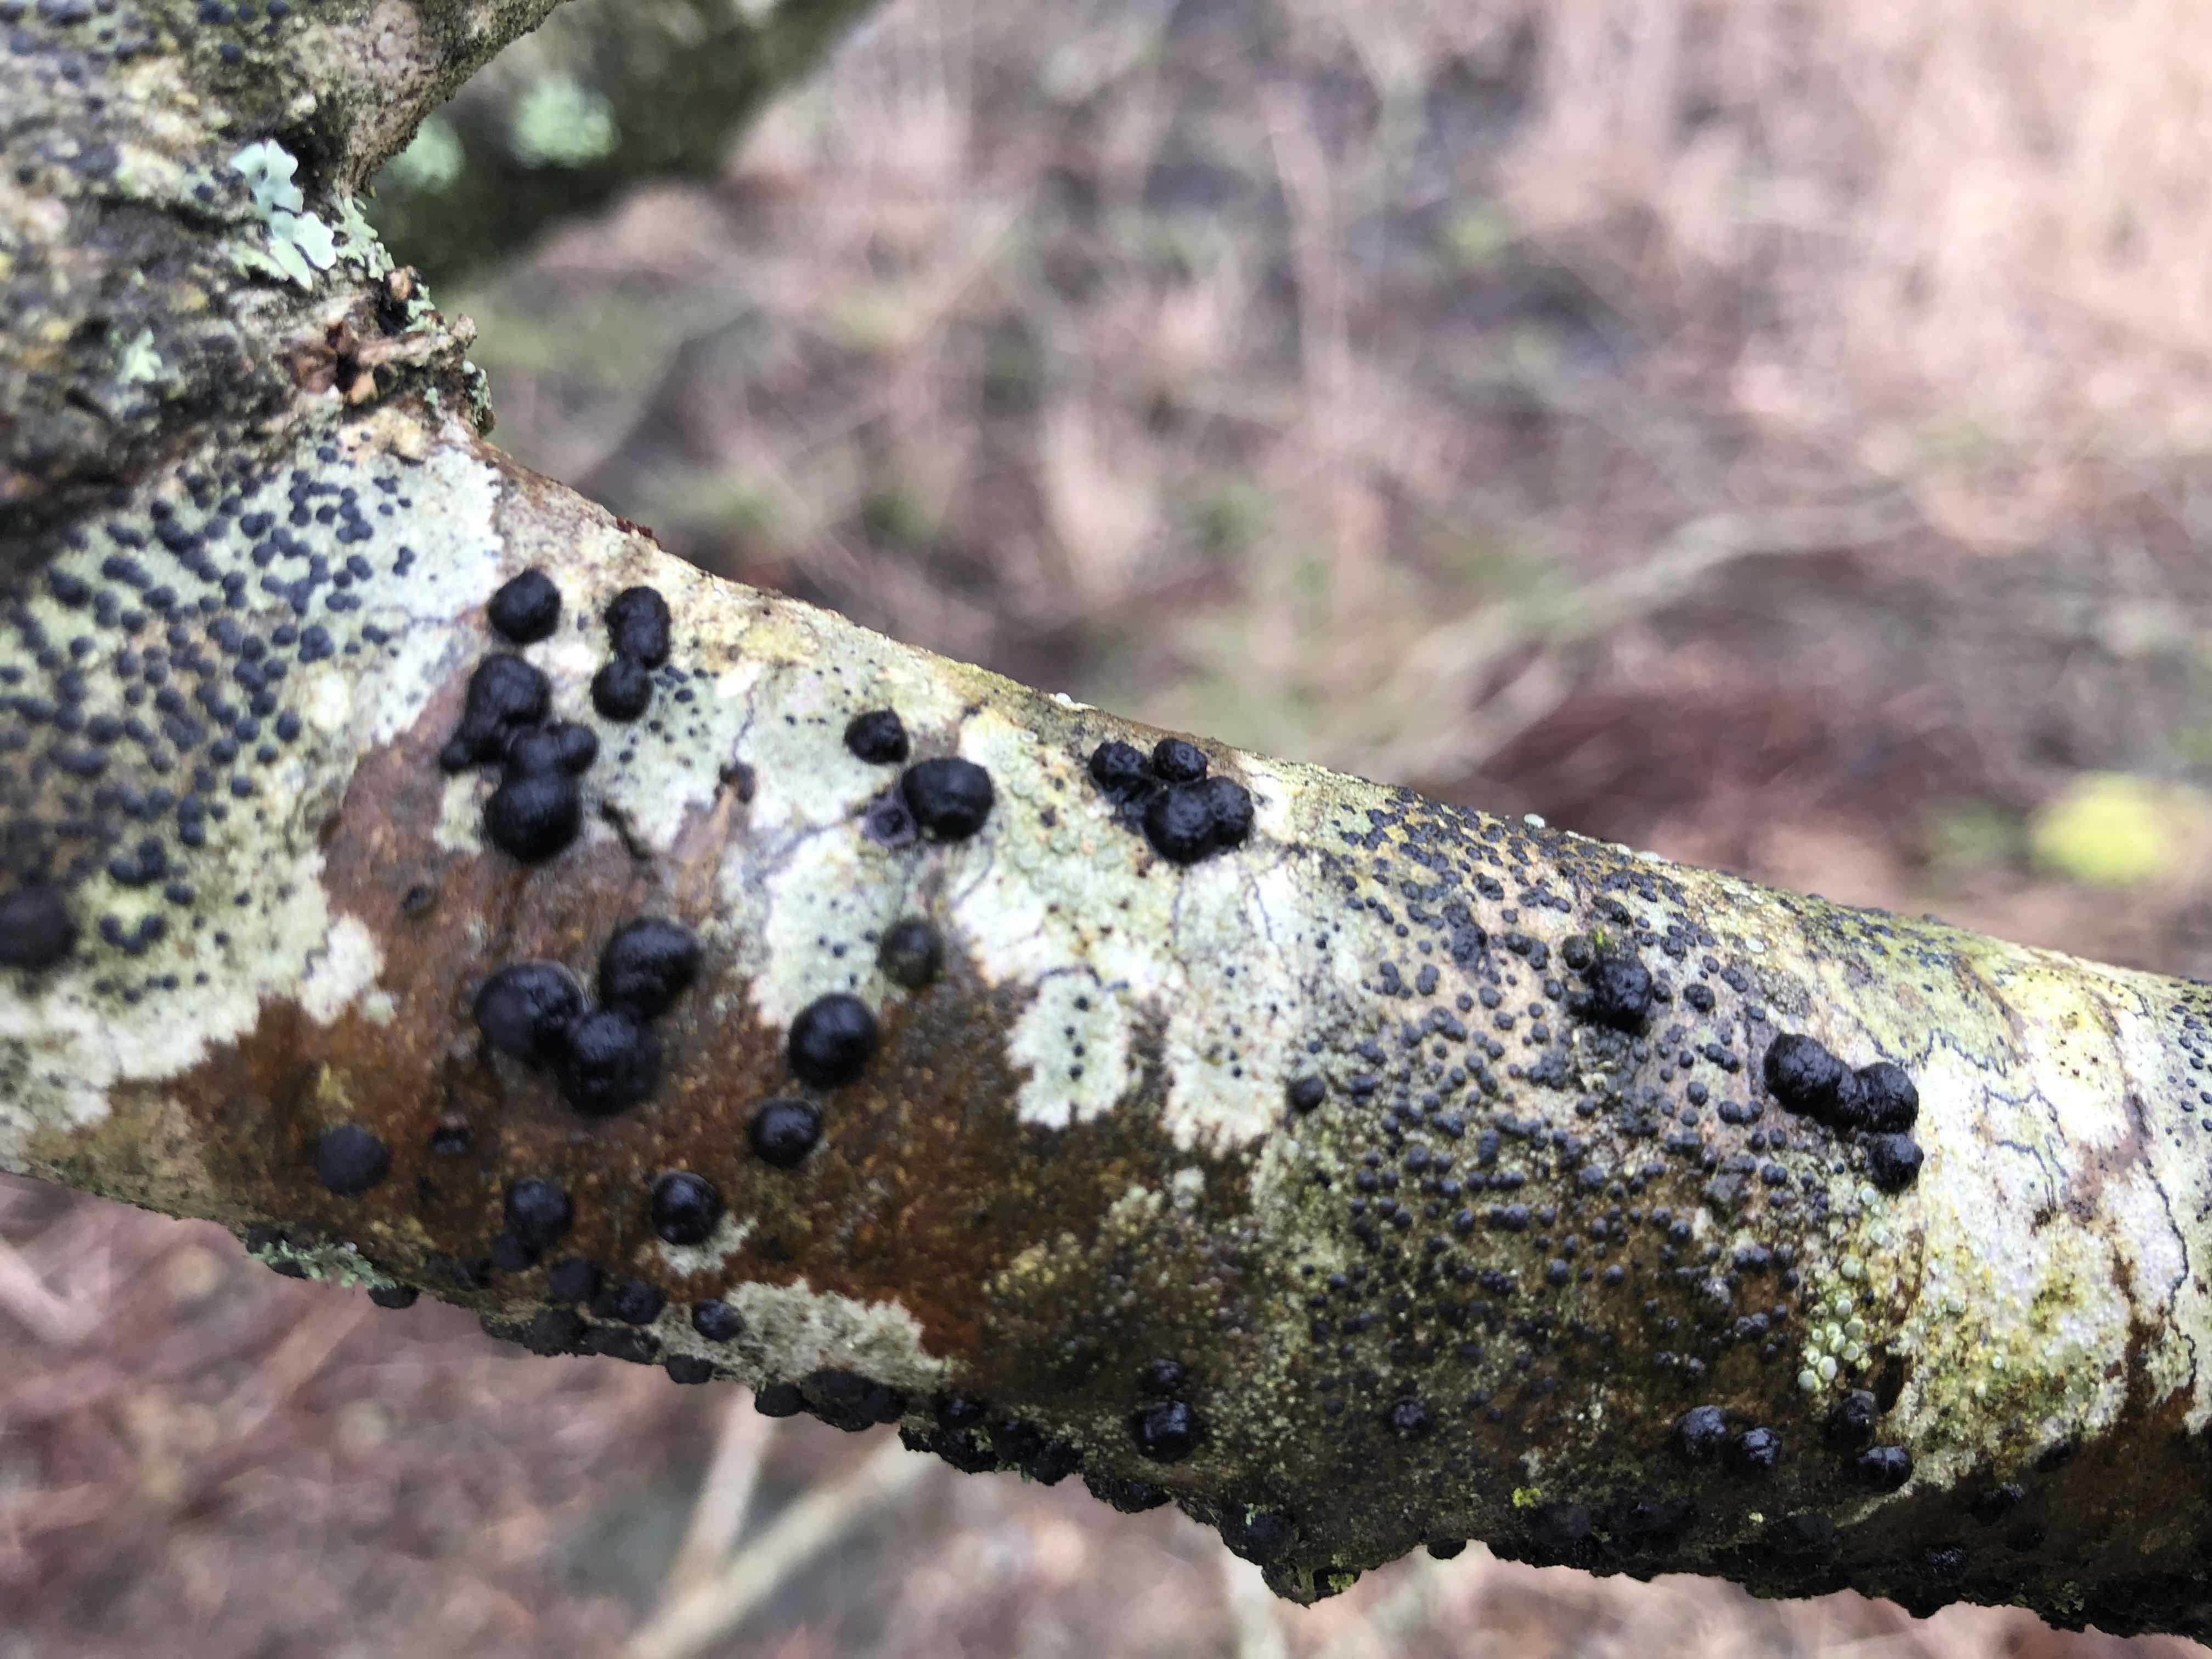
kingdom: Fungi
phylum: Ascomycota
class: Sordariomycetes
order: Xylariales
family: Hypoxylaceae
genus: Hypoxylon
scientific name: Hypoxylon fuscoides
